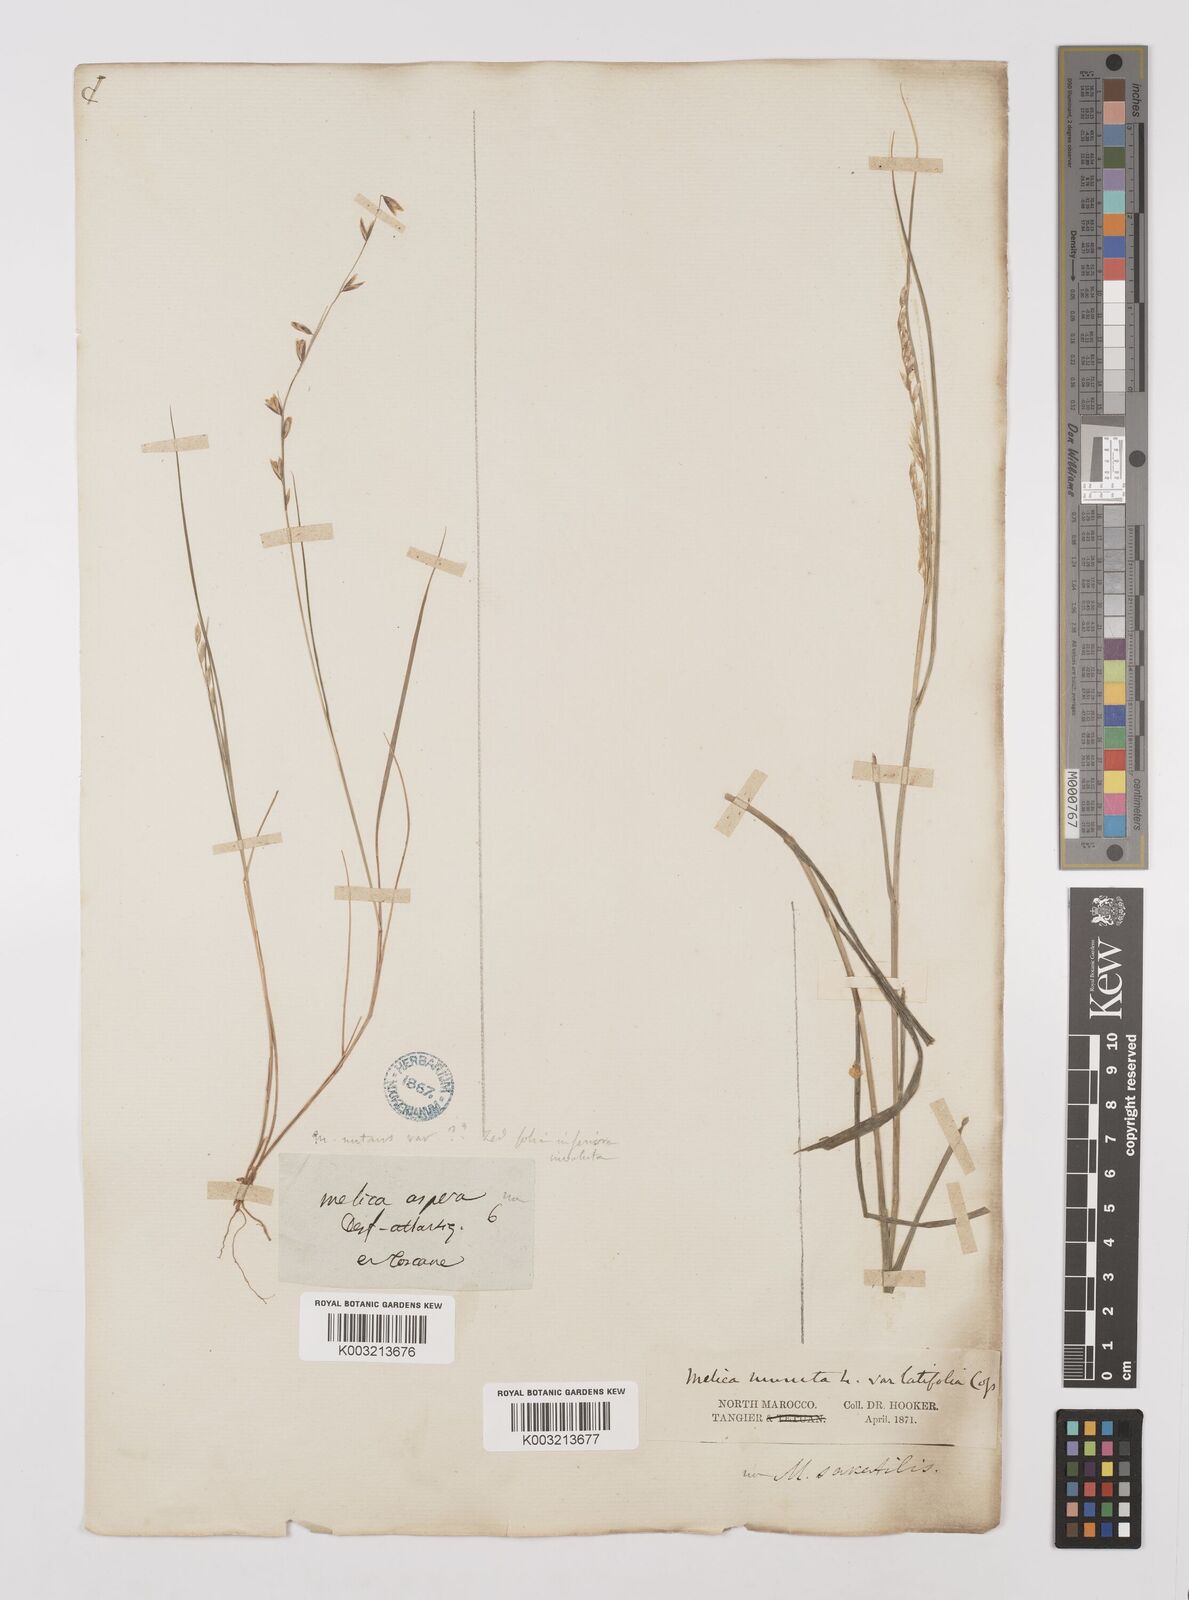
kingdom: Plantae
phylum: Tracheophyta
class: Liliopsida
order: Poales
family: Poaceae
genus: Melica
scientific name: Melica minuta
